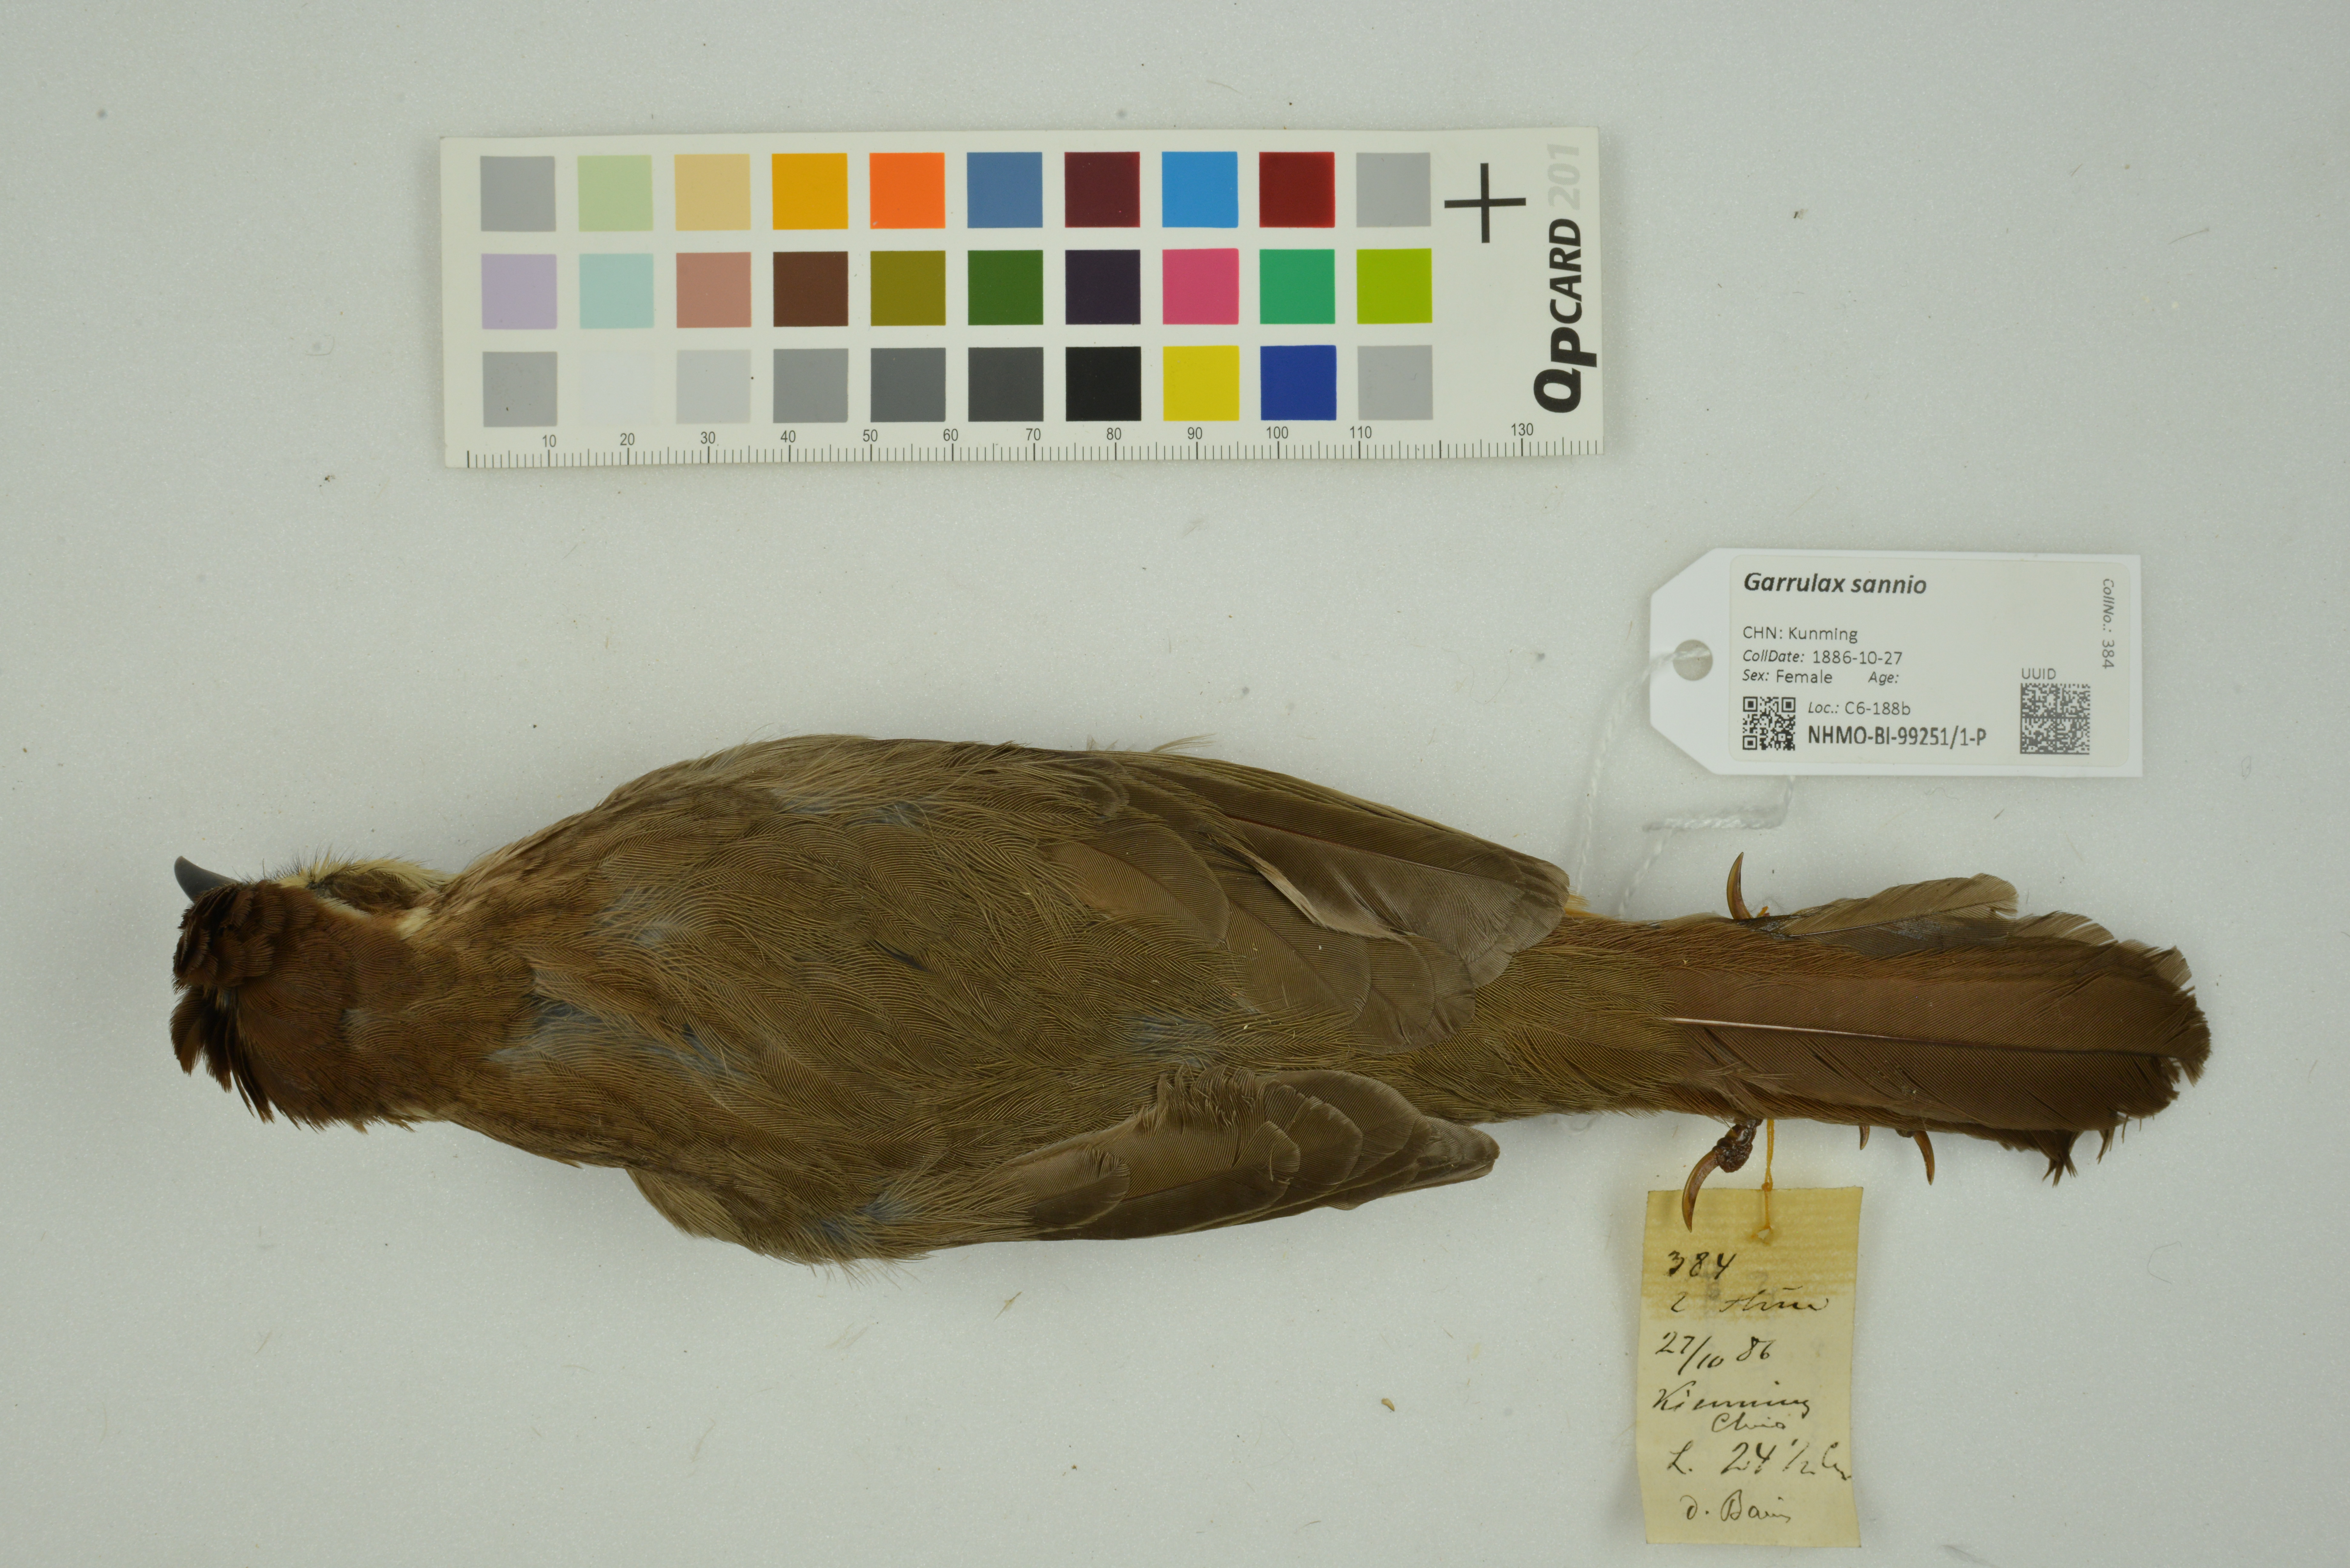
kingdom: Animalia
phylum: Chordata
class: Aves
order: Passeriformes
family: Leiothrichidae
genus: Pterorhinus
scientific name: Pterorhinus sannio
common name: White-browed laughingthrush
